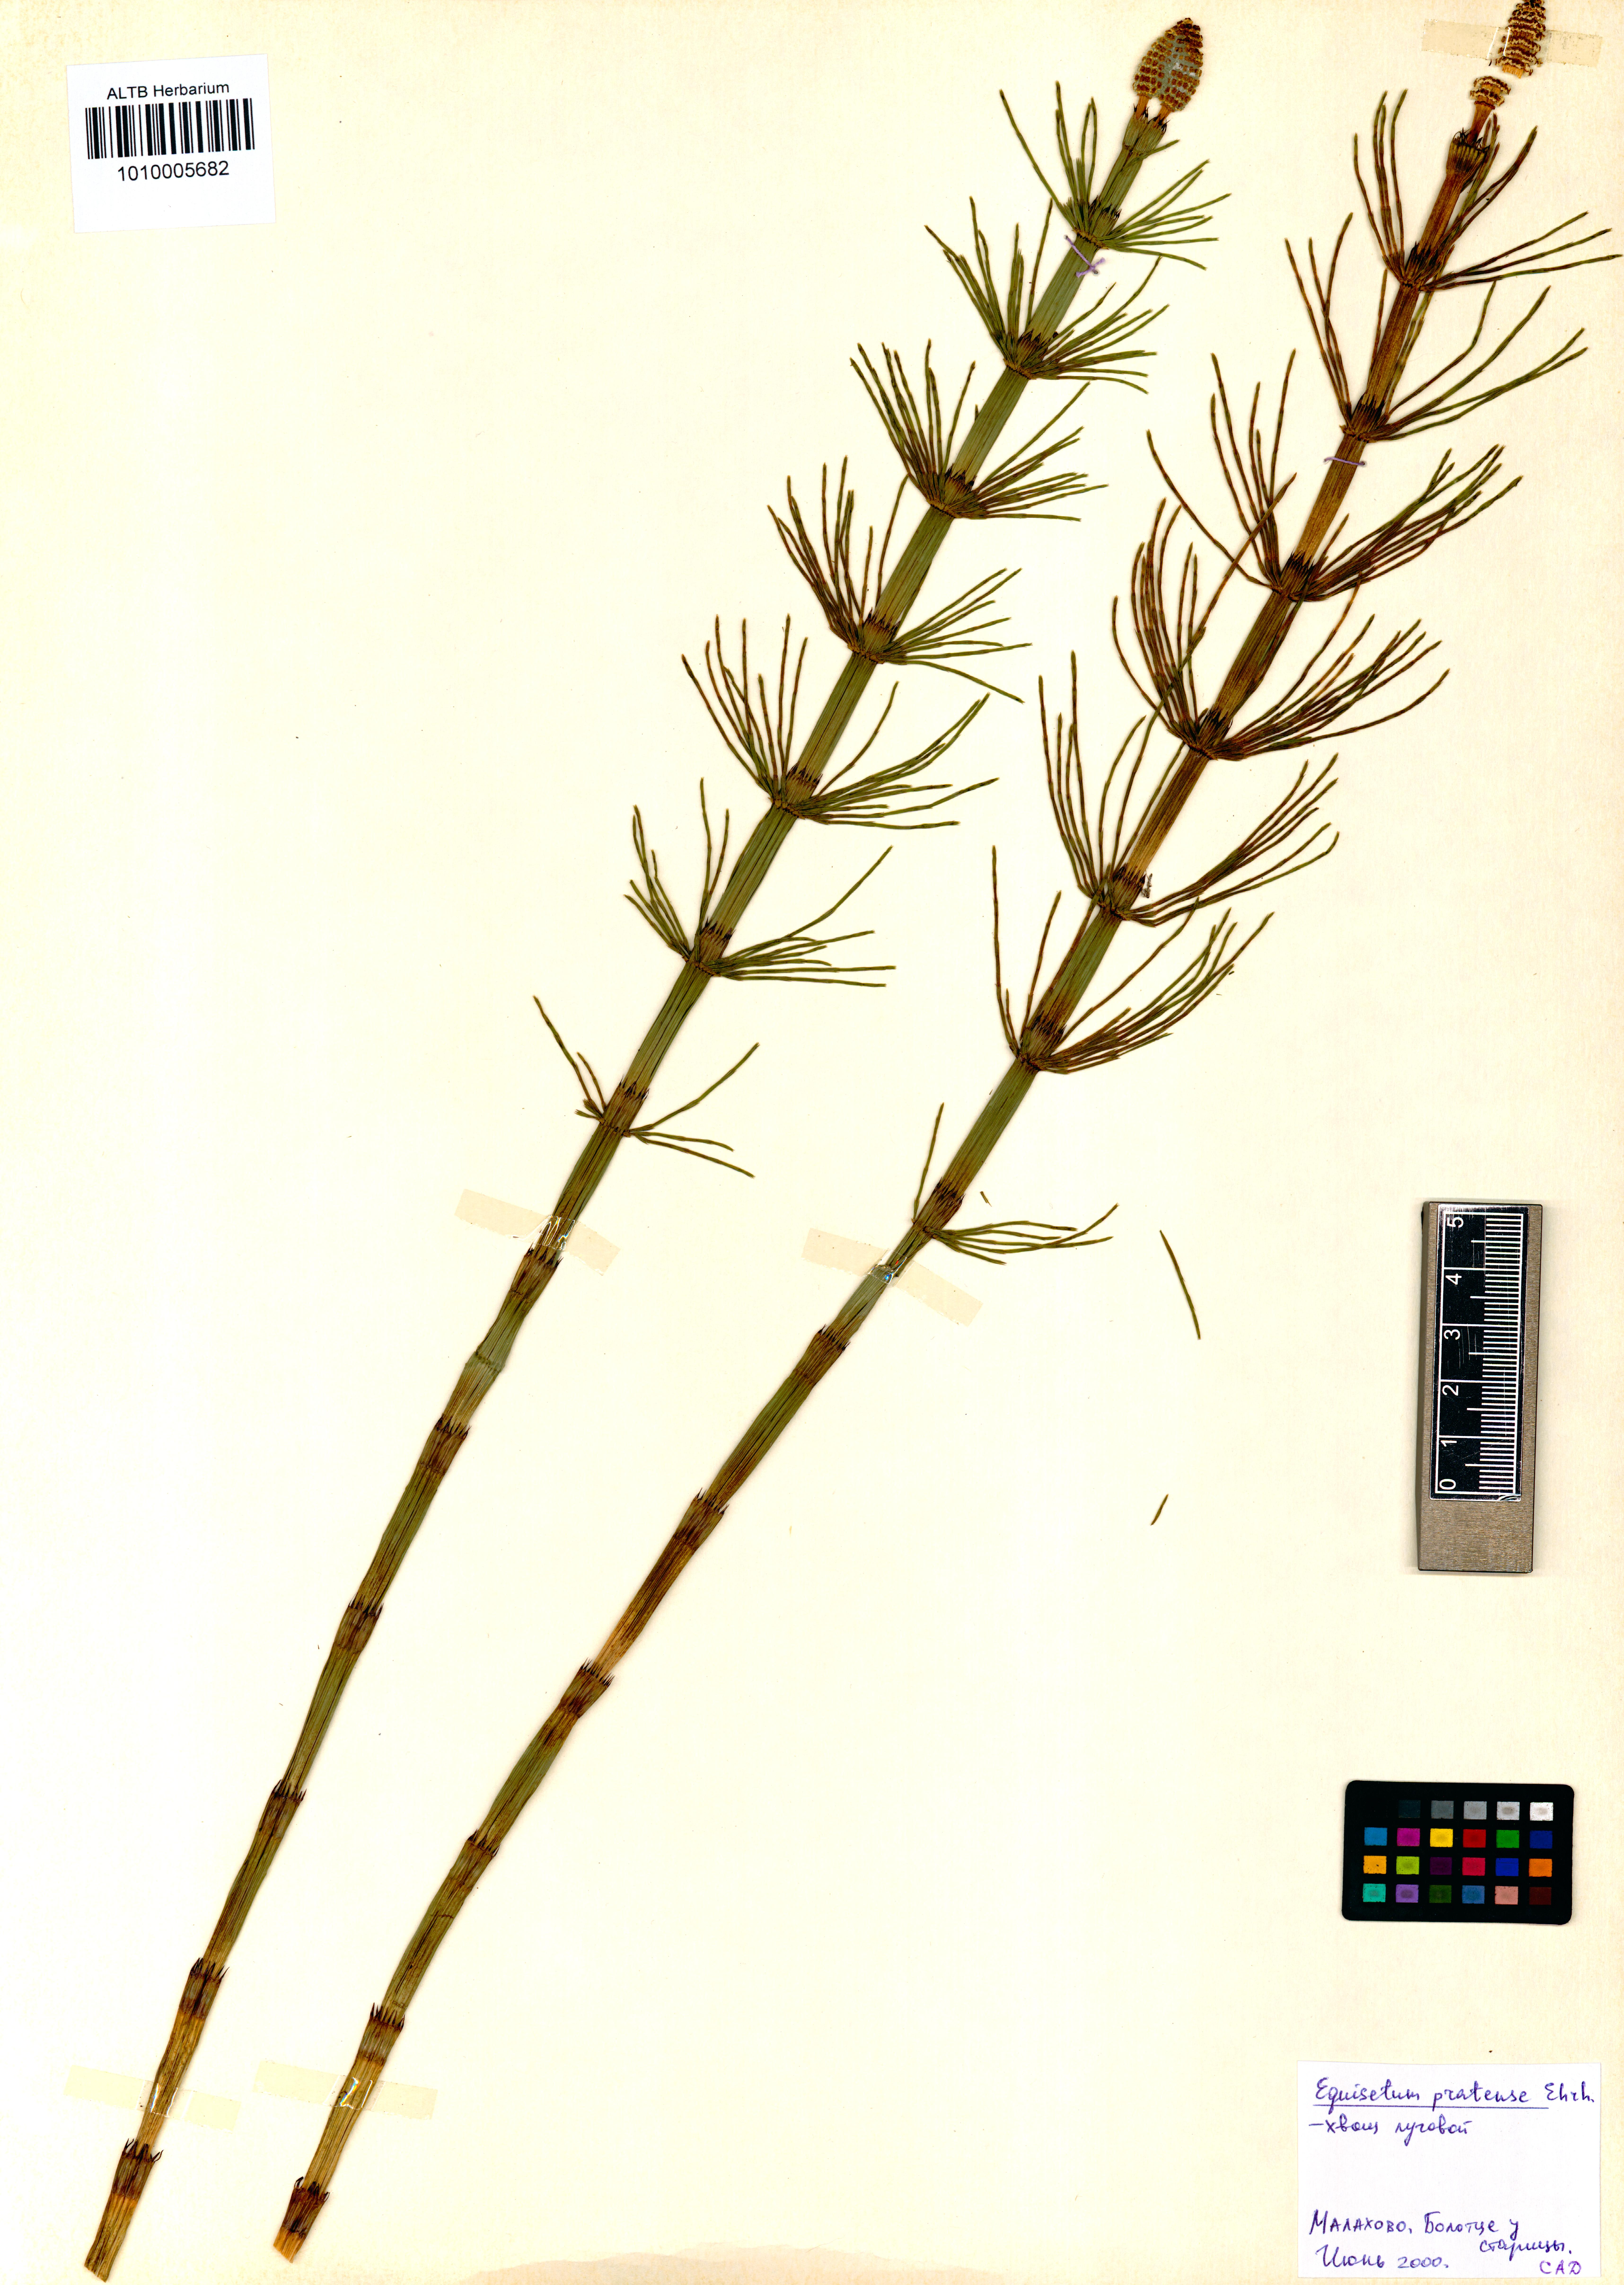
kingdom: Plantae
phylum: Tracheophyta
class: Polypodiopsida
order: Equisetales
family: Equisetaceae
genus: Equisetum
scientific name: Equisetum pratense
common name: Meadow horsetail
